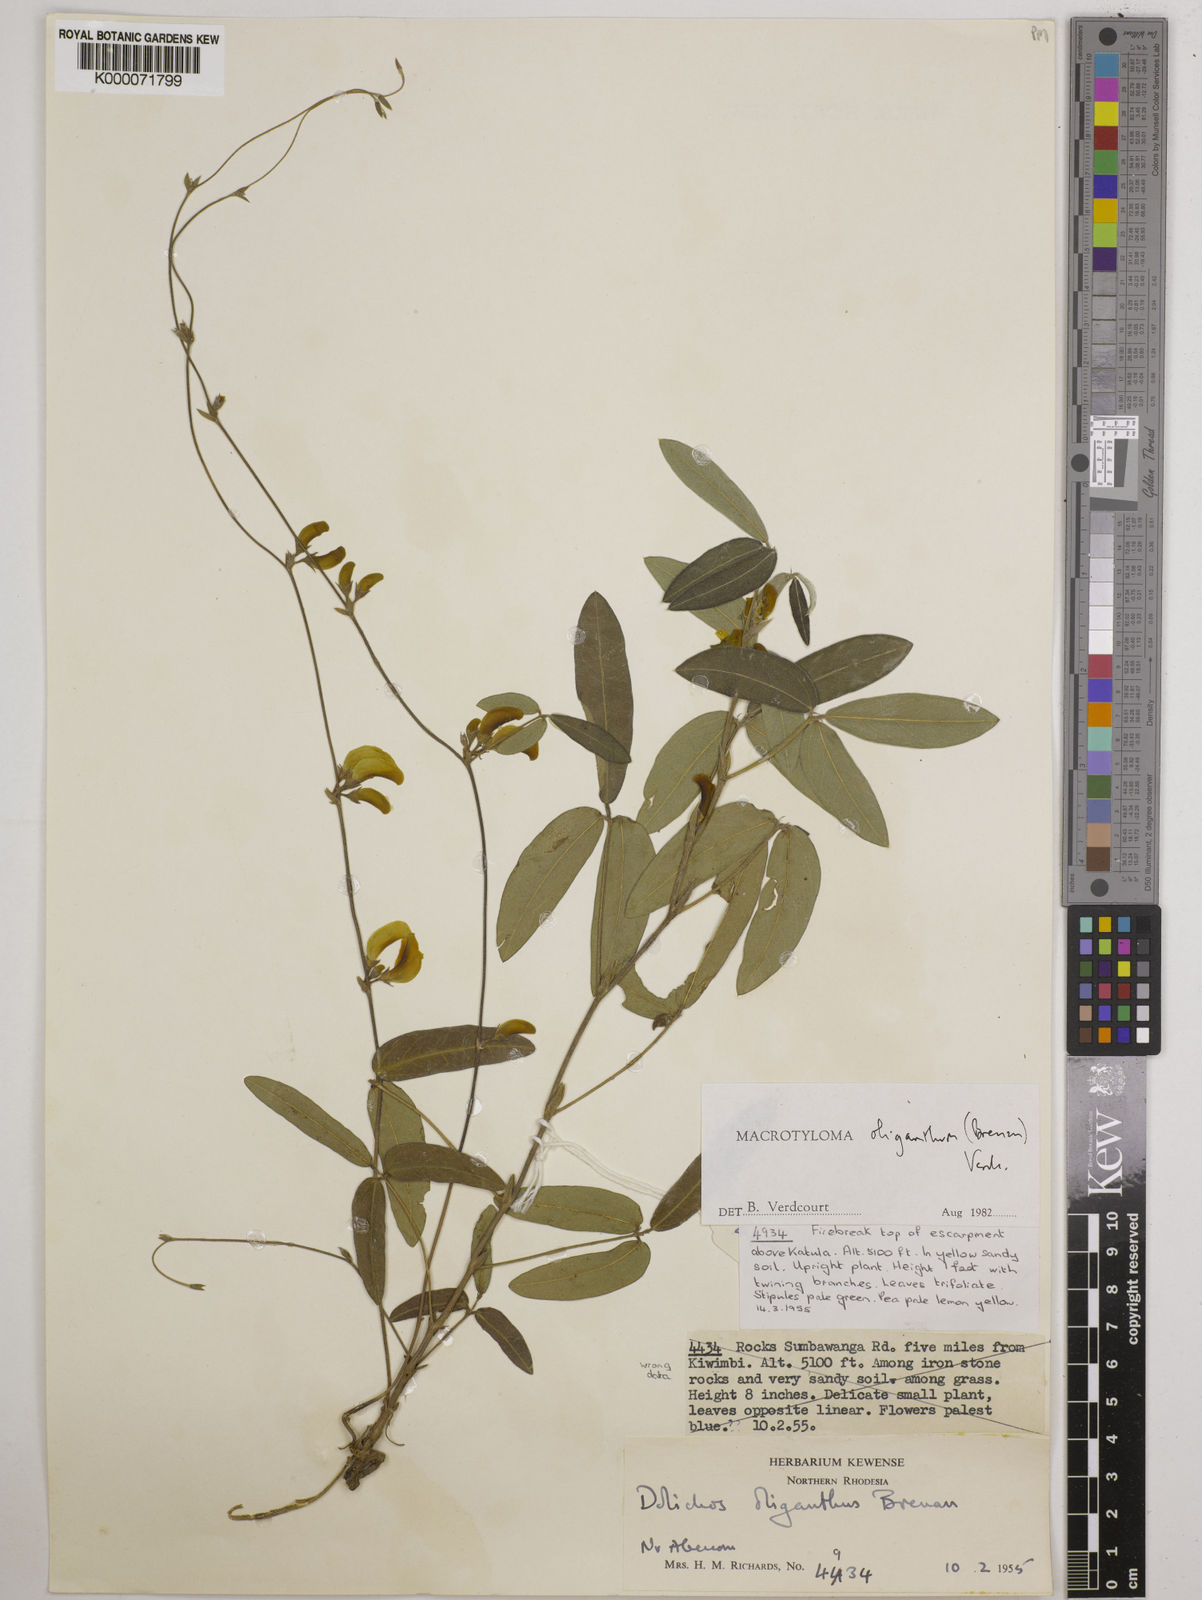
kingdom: Plantae
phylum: Tracheophyta
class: Magnoliopsida
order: Fabales
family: Fabaceae
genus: Macrotyloma
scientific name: Macrotyloma oliganthum
